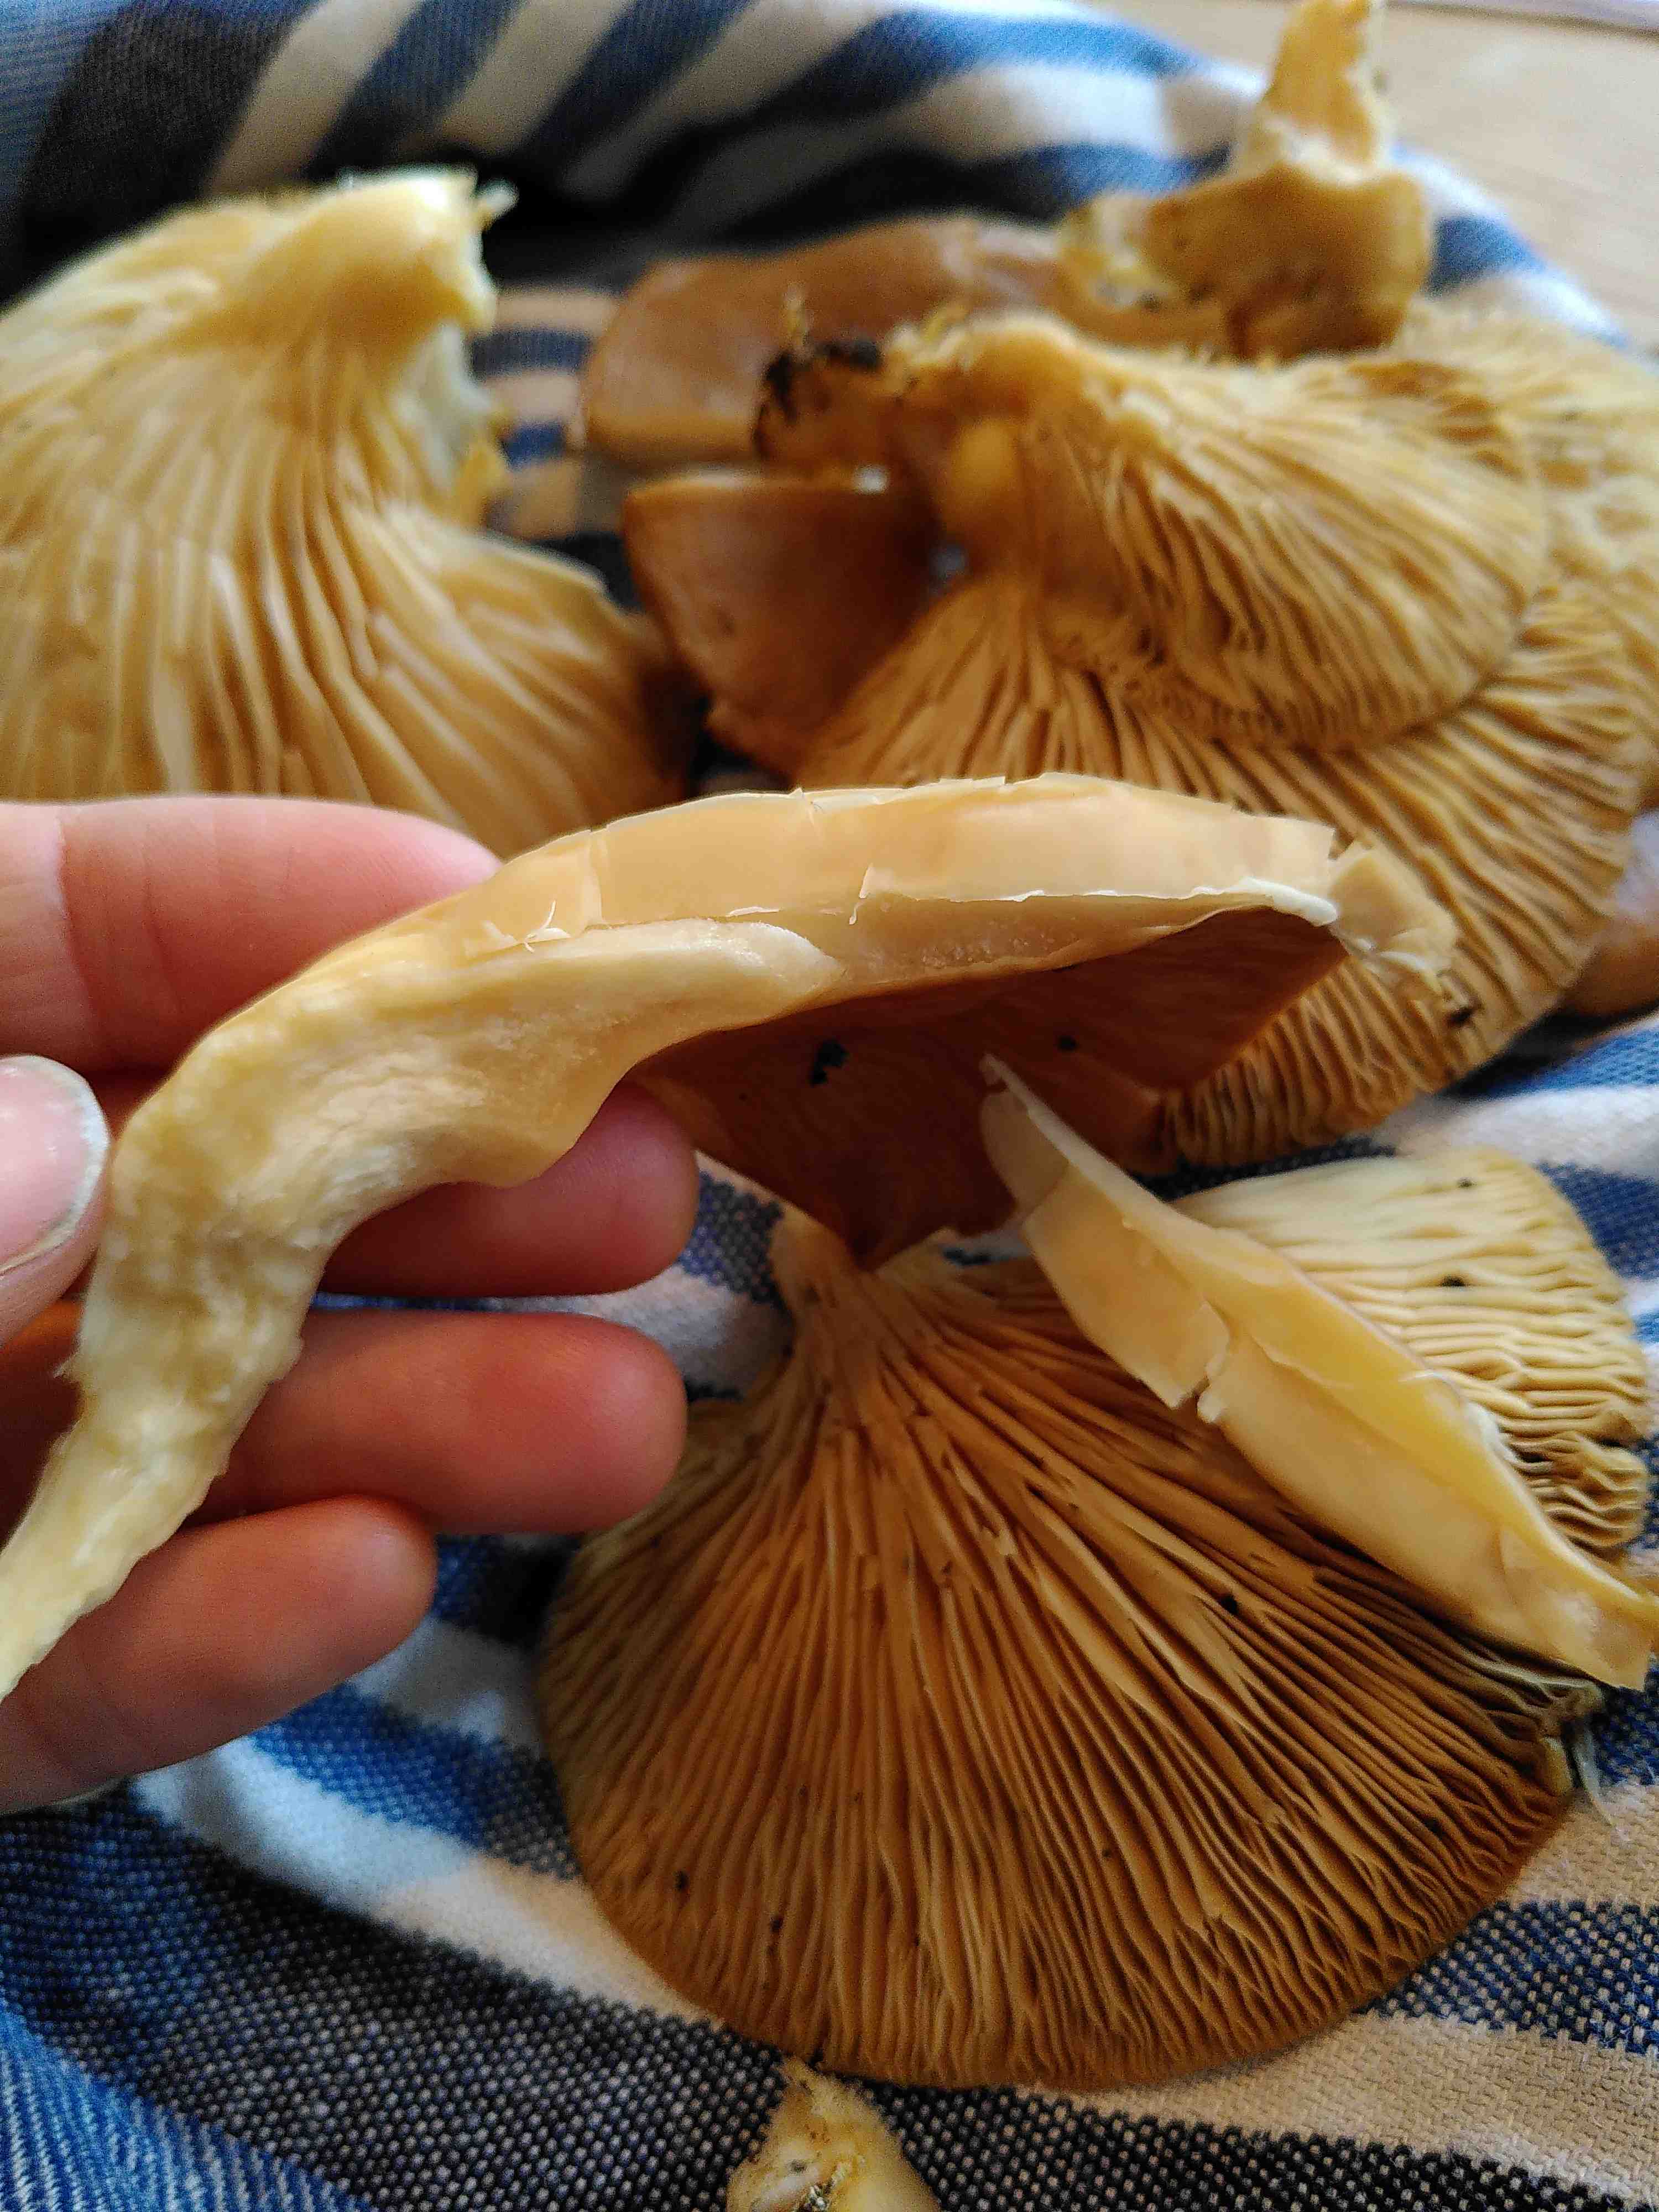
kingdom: Fungi
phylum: Basidiomycota
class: Agaricomycetes
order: Agaricales
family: Pleurotaceae
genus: Pleurotus
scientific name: Pleurotus ostreatus
